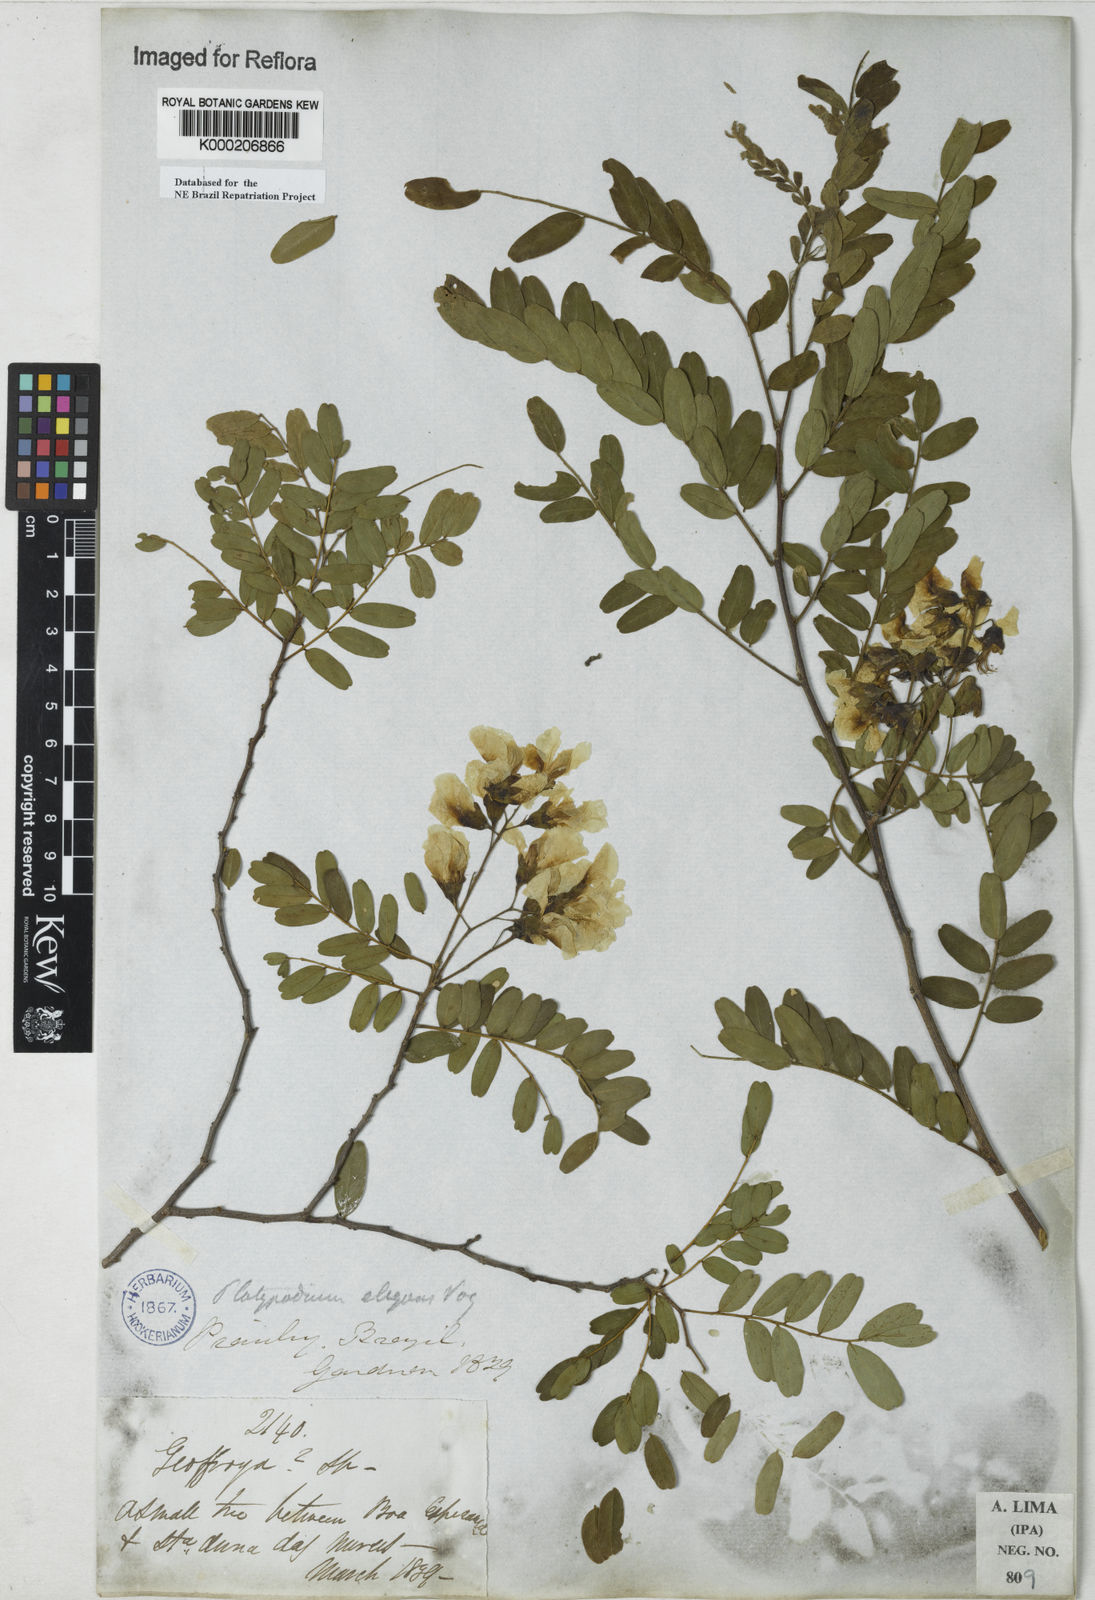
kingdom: Plantae
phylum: Tracheophyta
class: Magnoliopsida
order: Fabales
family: Fabaceae
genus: Platypodium
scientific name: Platypodium elegans
